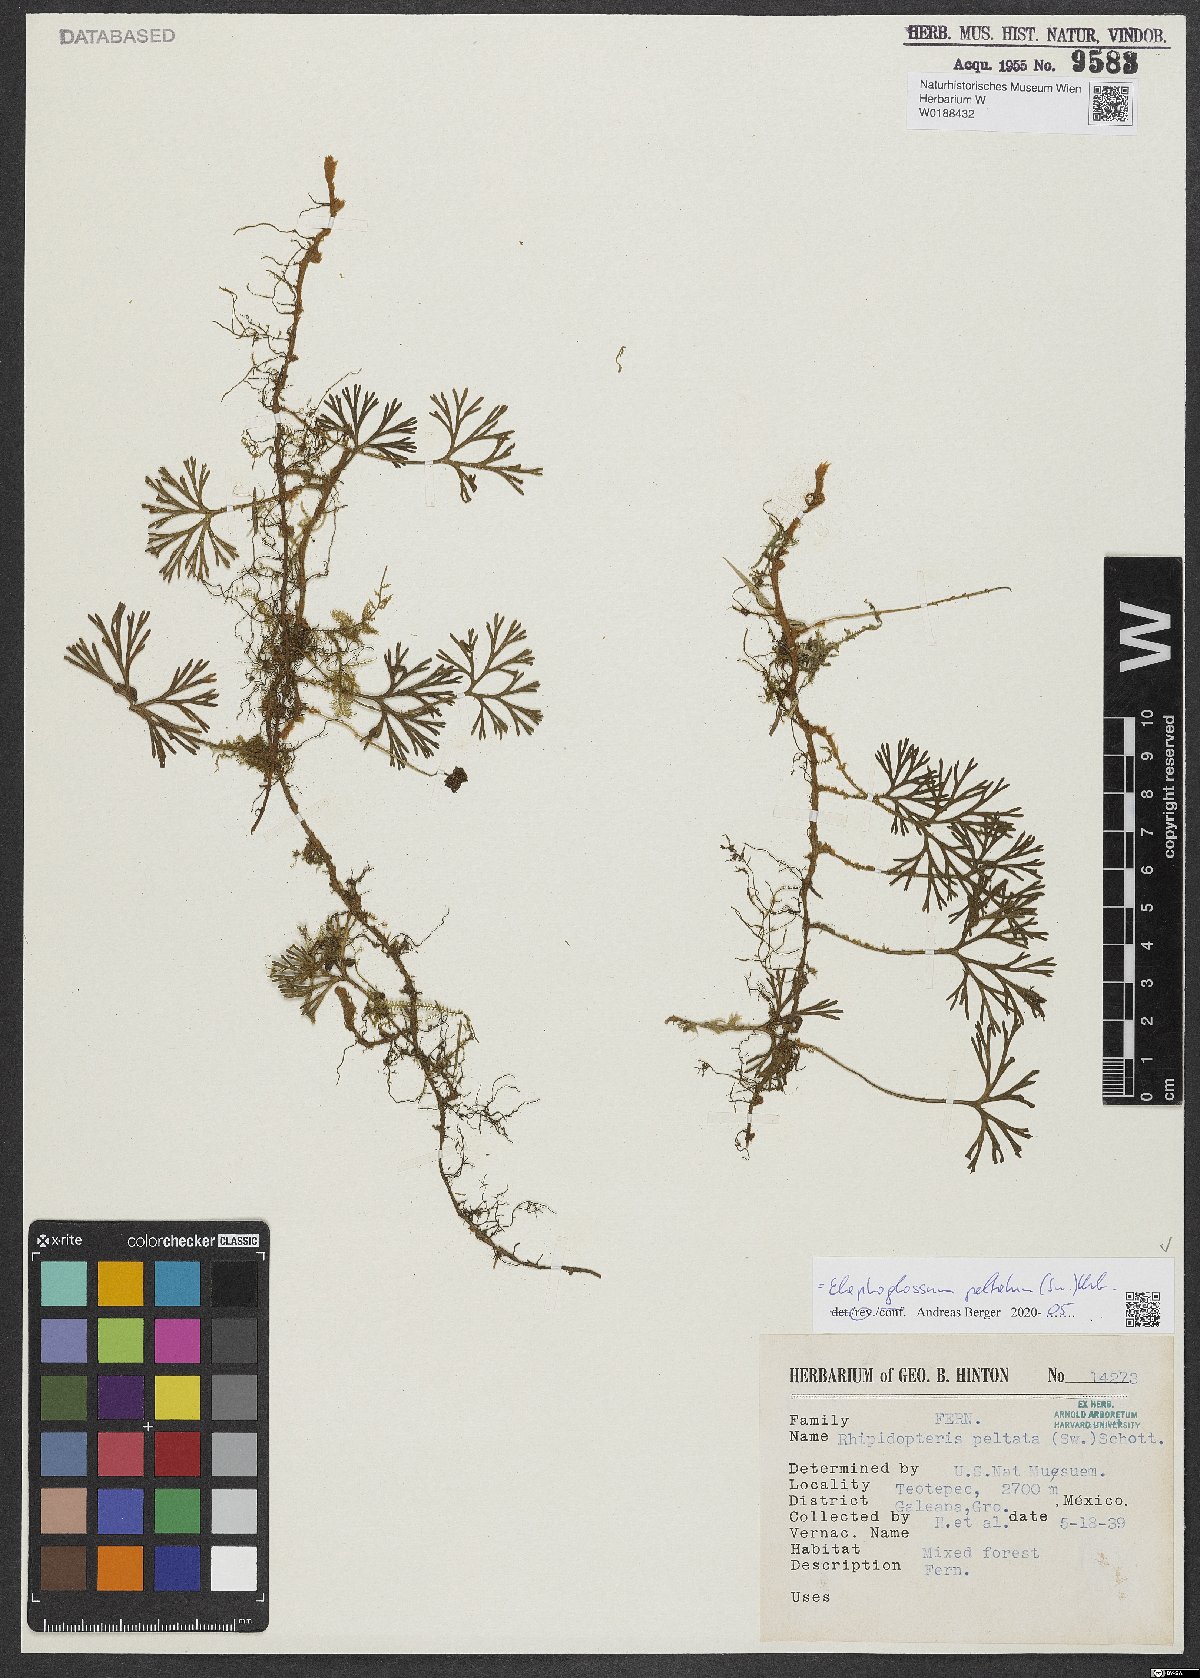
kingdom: Plantae
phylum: Tracheophyta
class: Polypodiopsida
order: Polypodiales
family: Dryopteridaceae
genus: Elaphoglossum
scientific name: Elaphoglossum peltatum
